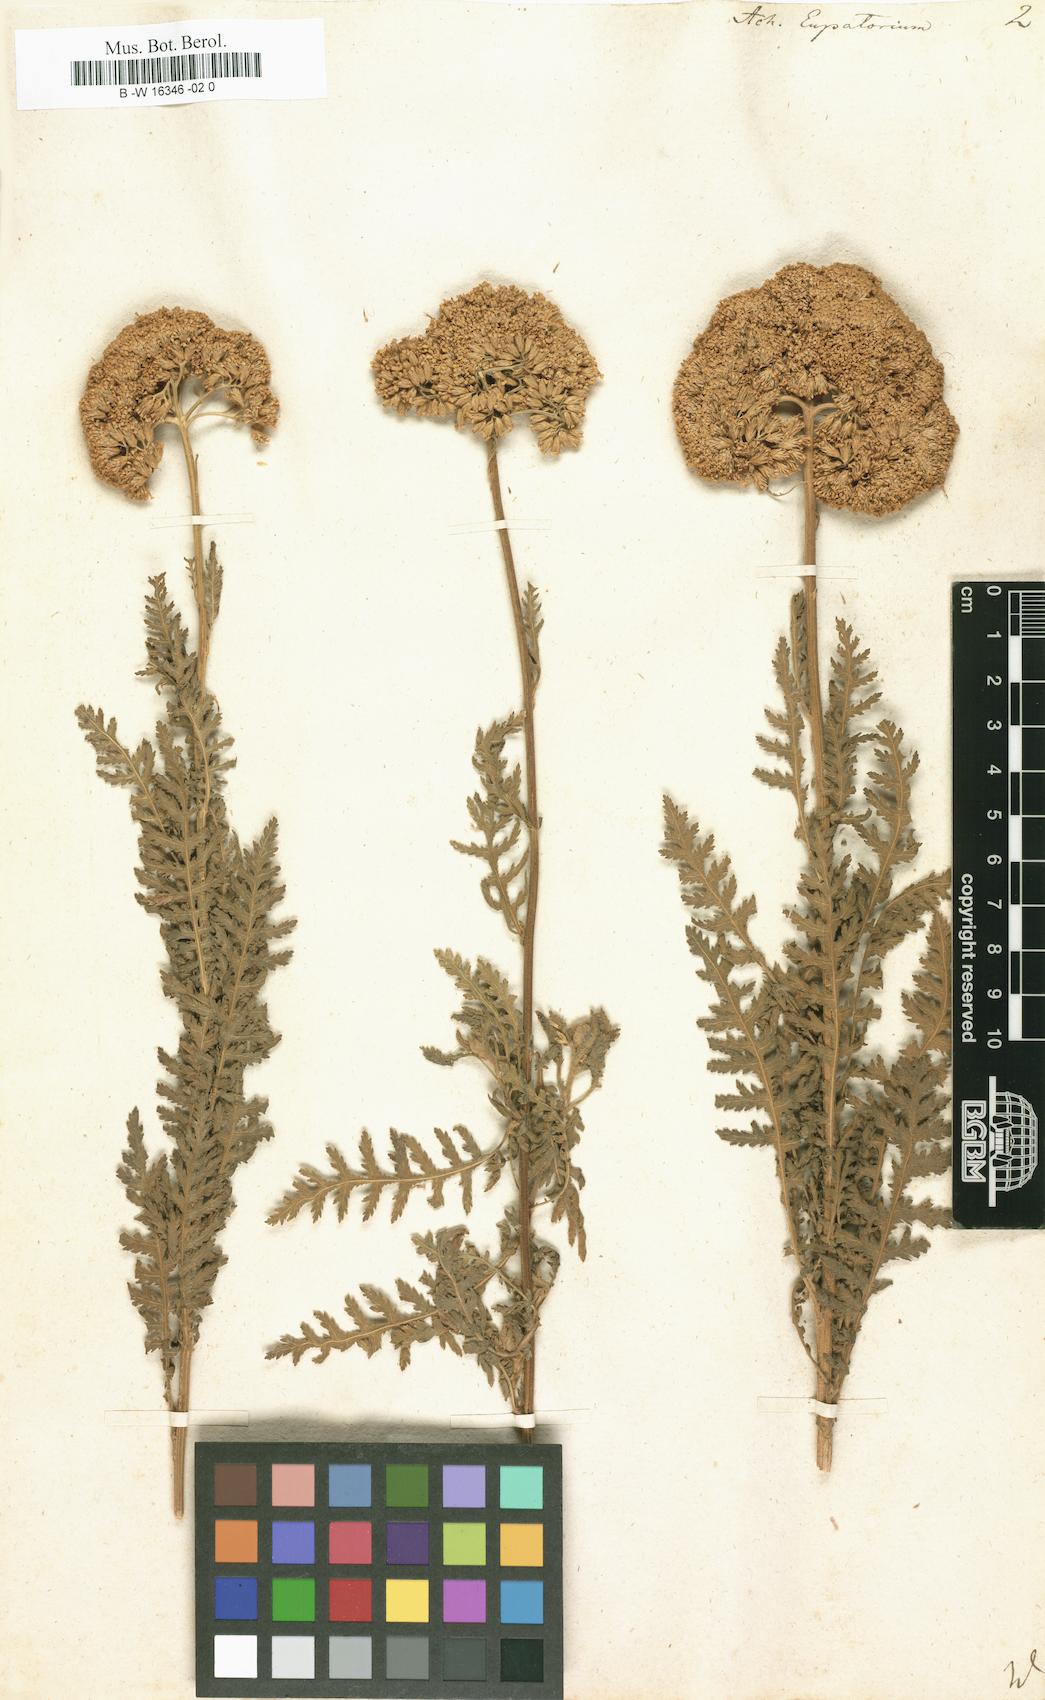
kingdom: Plantae
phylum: Tracheophyta
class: Magnoliopsida
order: Asterales
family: Asteraceae
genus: Achillea
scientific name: Achillea filipendulina
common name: Fernleaf yarrow
